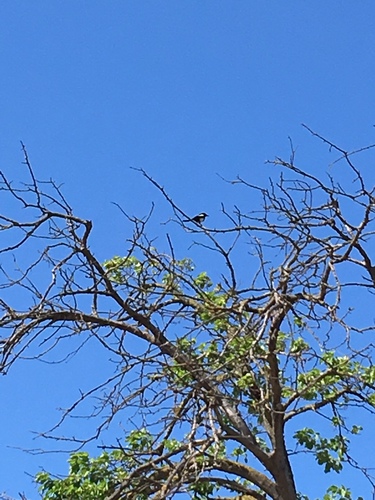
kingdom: Animalia
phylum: Chordata
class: Aves
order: Passeriformes
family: Corvidae
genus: Pica
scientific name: Pica pica
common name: Eurasian magpie
